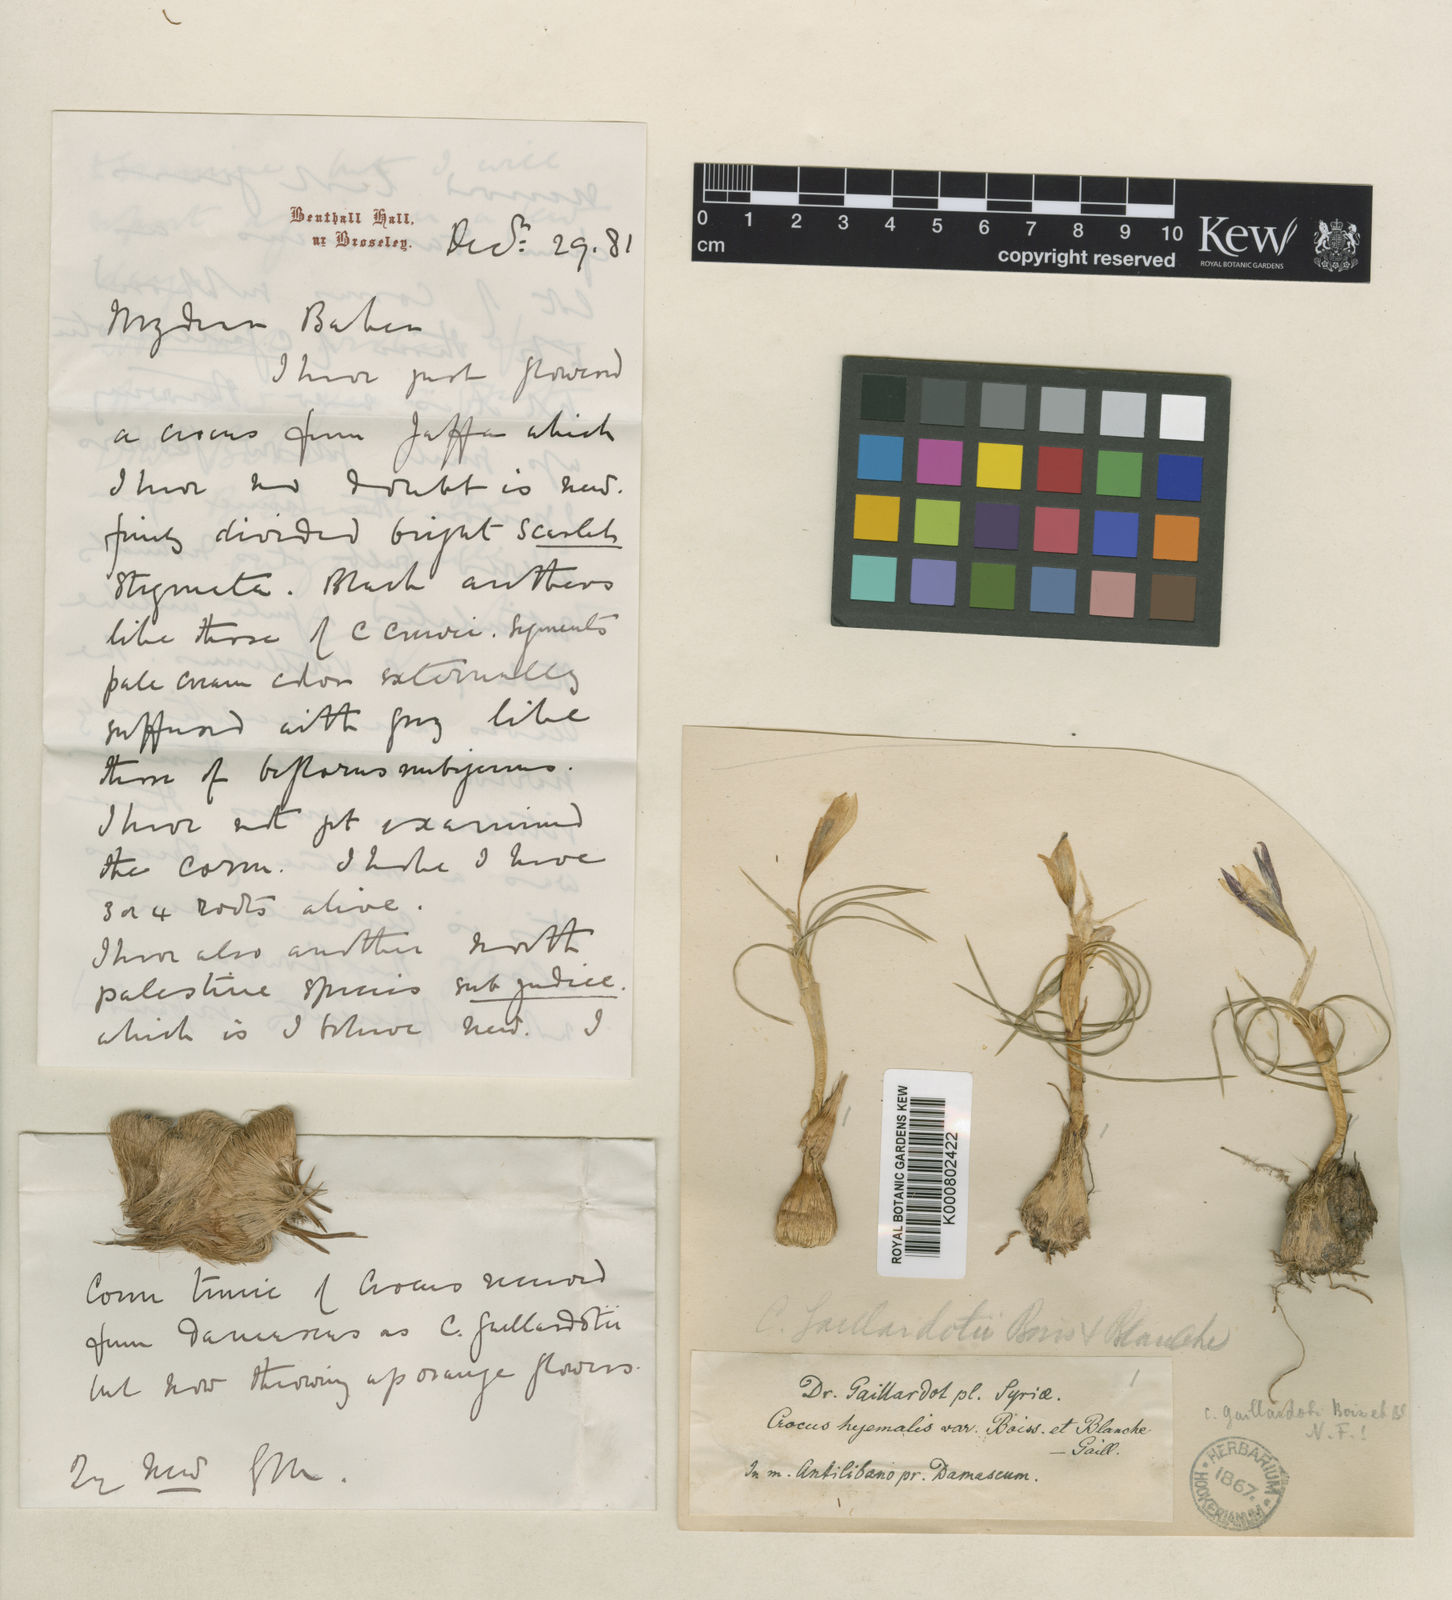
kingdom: Plantae
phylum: Tracheophyta
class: Liliopsida
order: Asparagales
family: Iridaceae
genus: Crocus
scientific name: Crocus aleppicus
